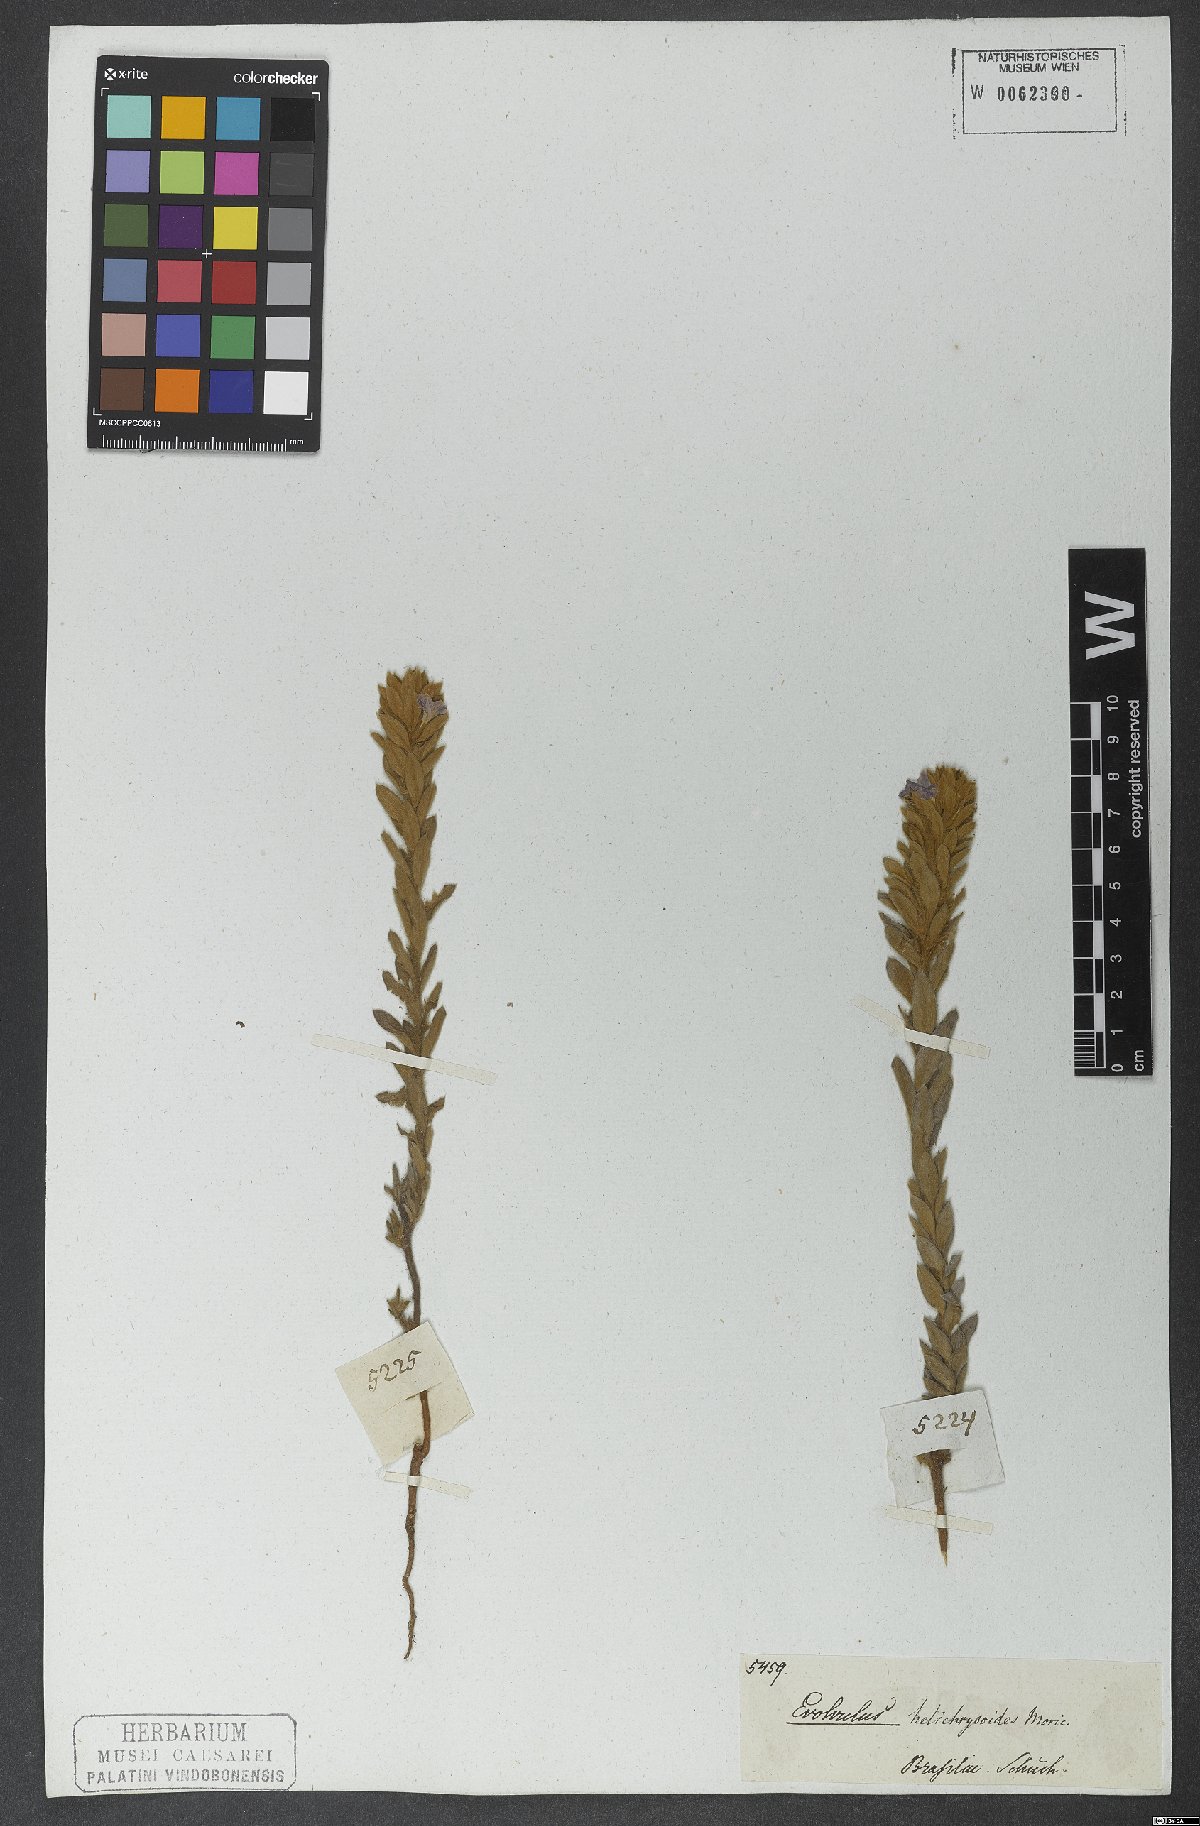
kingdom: Plantae
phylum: Tracheophyta
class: Magnoliopsida
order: Solanales
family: Convolvulaceae
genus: Evolvulus
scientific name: Evolvulus helichrysoides
